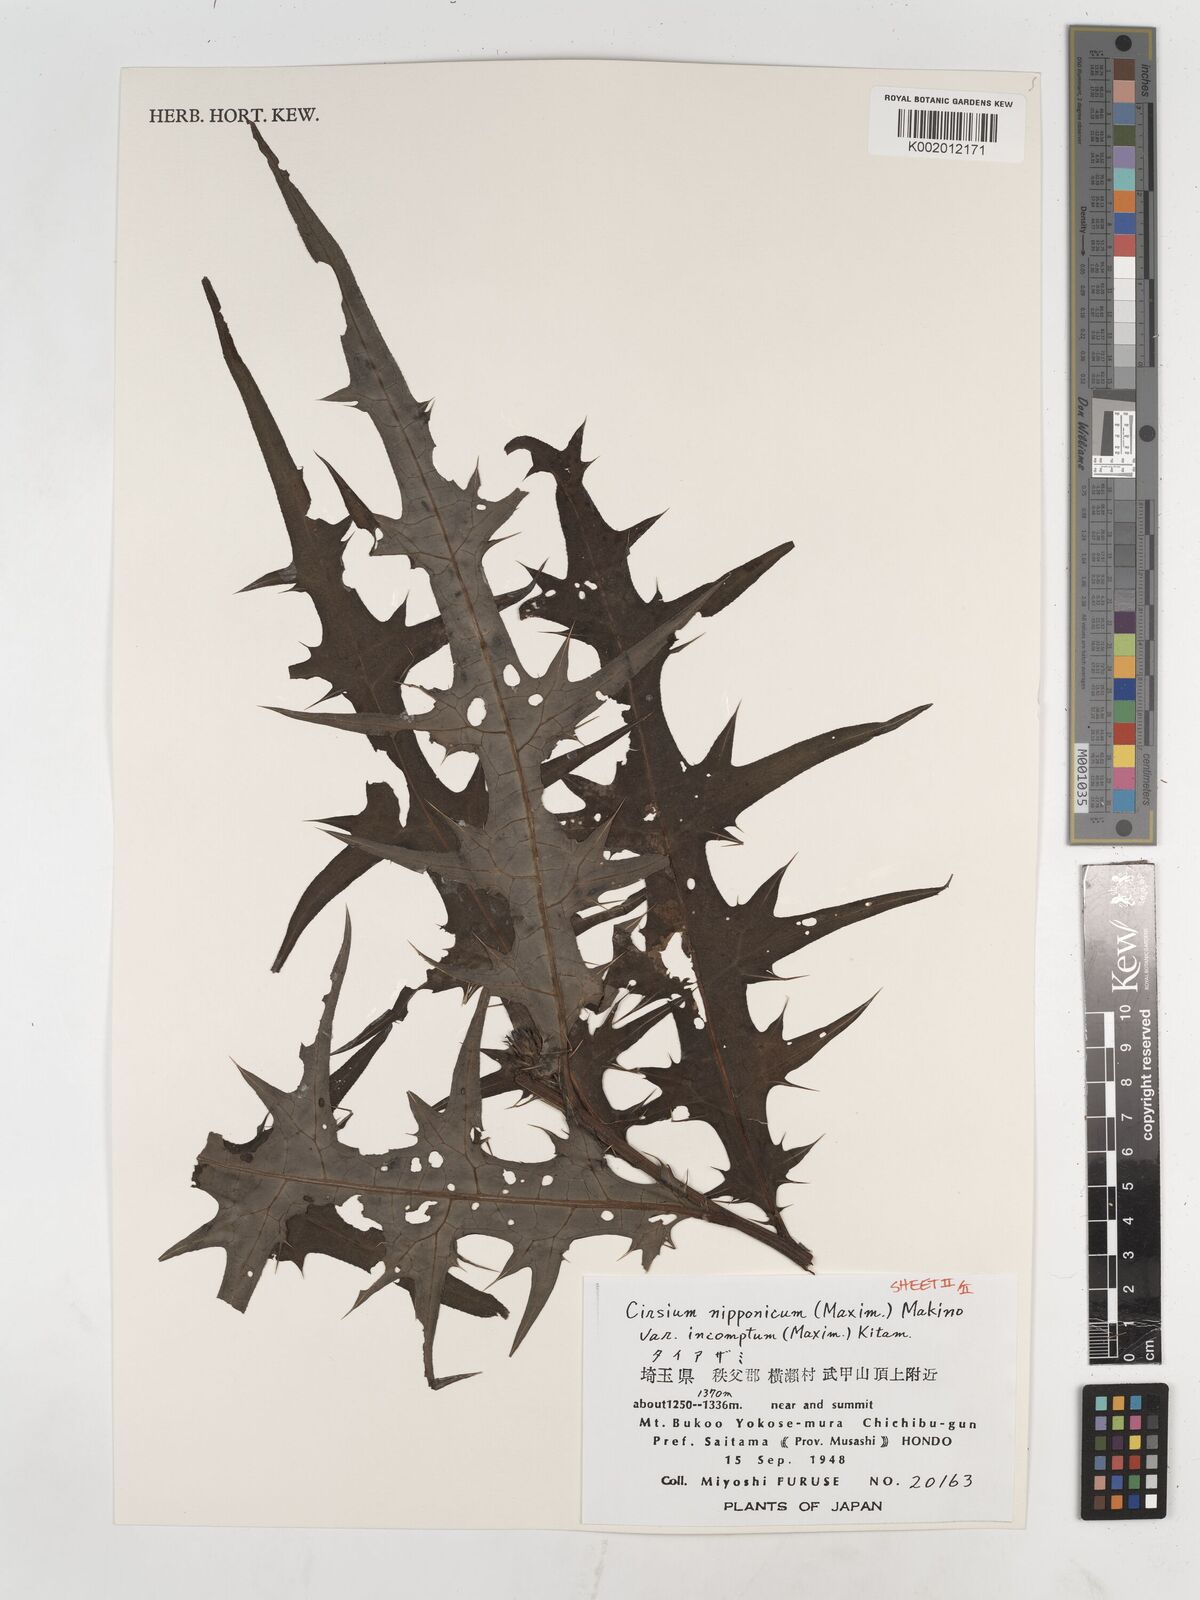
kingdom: Plantae
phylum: Tracheophyta
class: Magnoliopsida
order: Asterales
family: Asteraceae
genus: Cirsium
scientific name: Cirsium nipponicum
